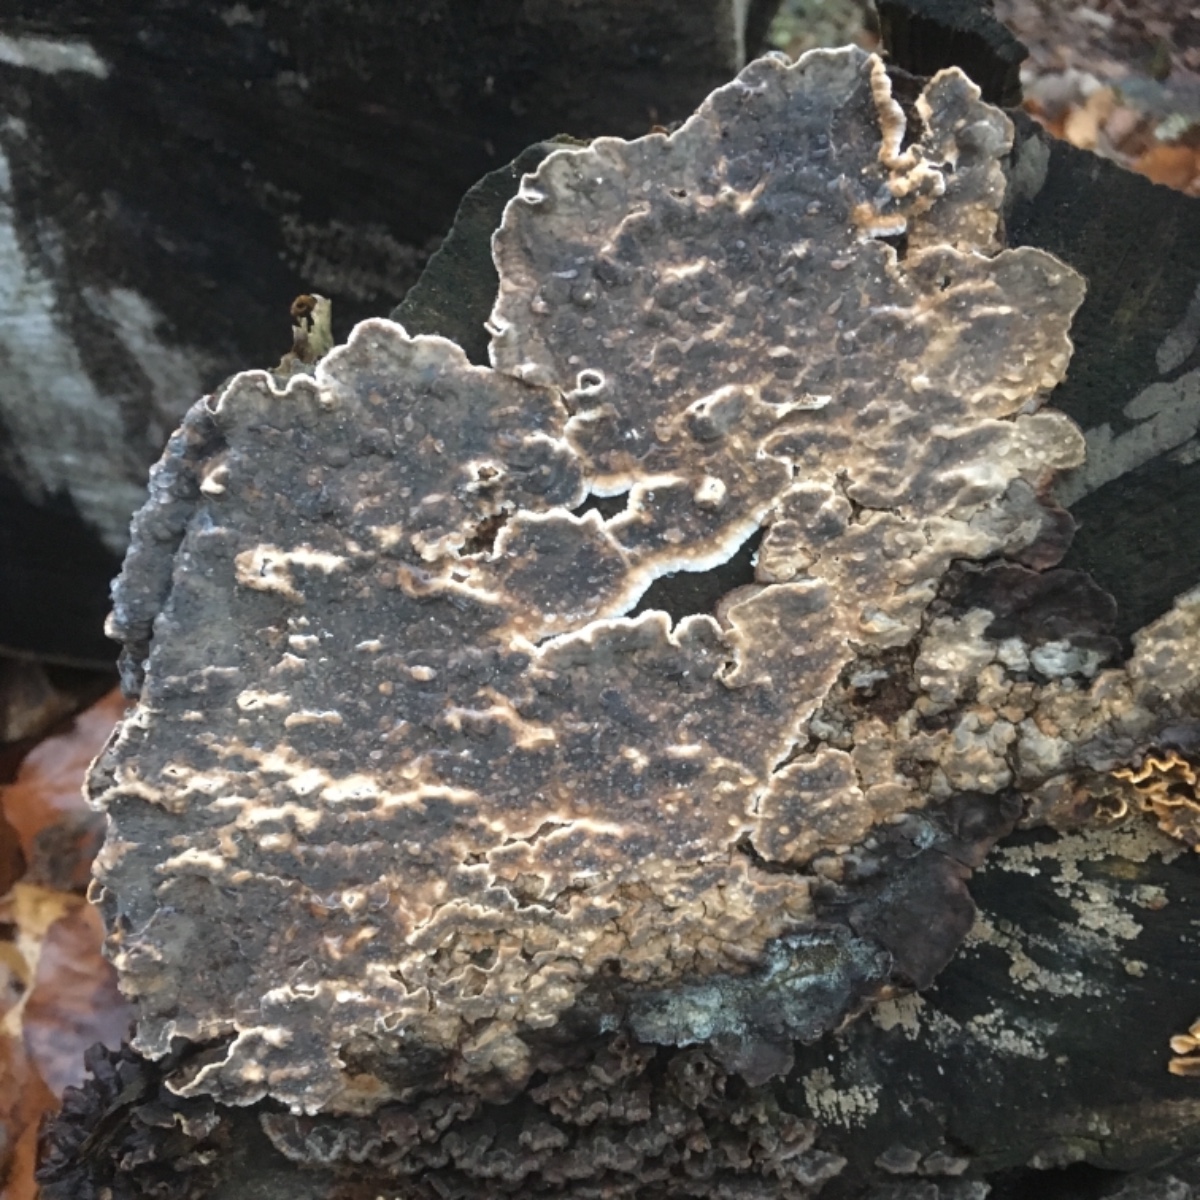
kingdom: Fungi
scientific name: Fungi
